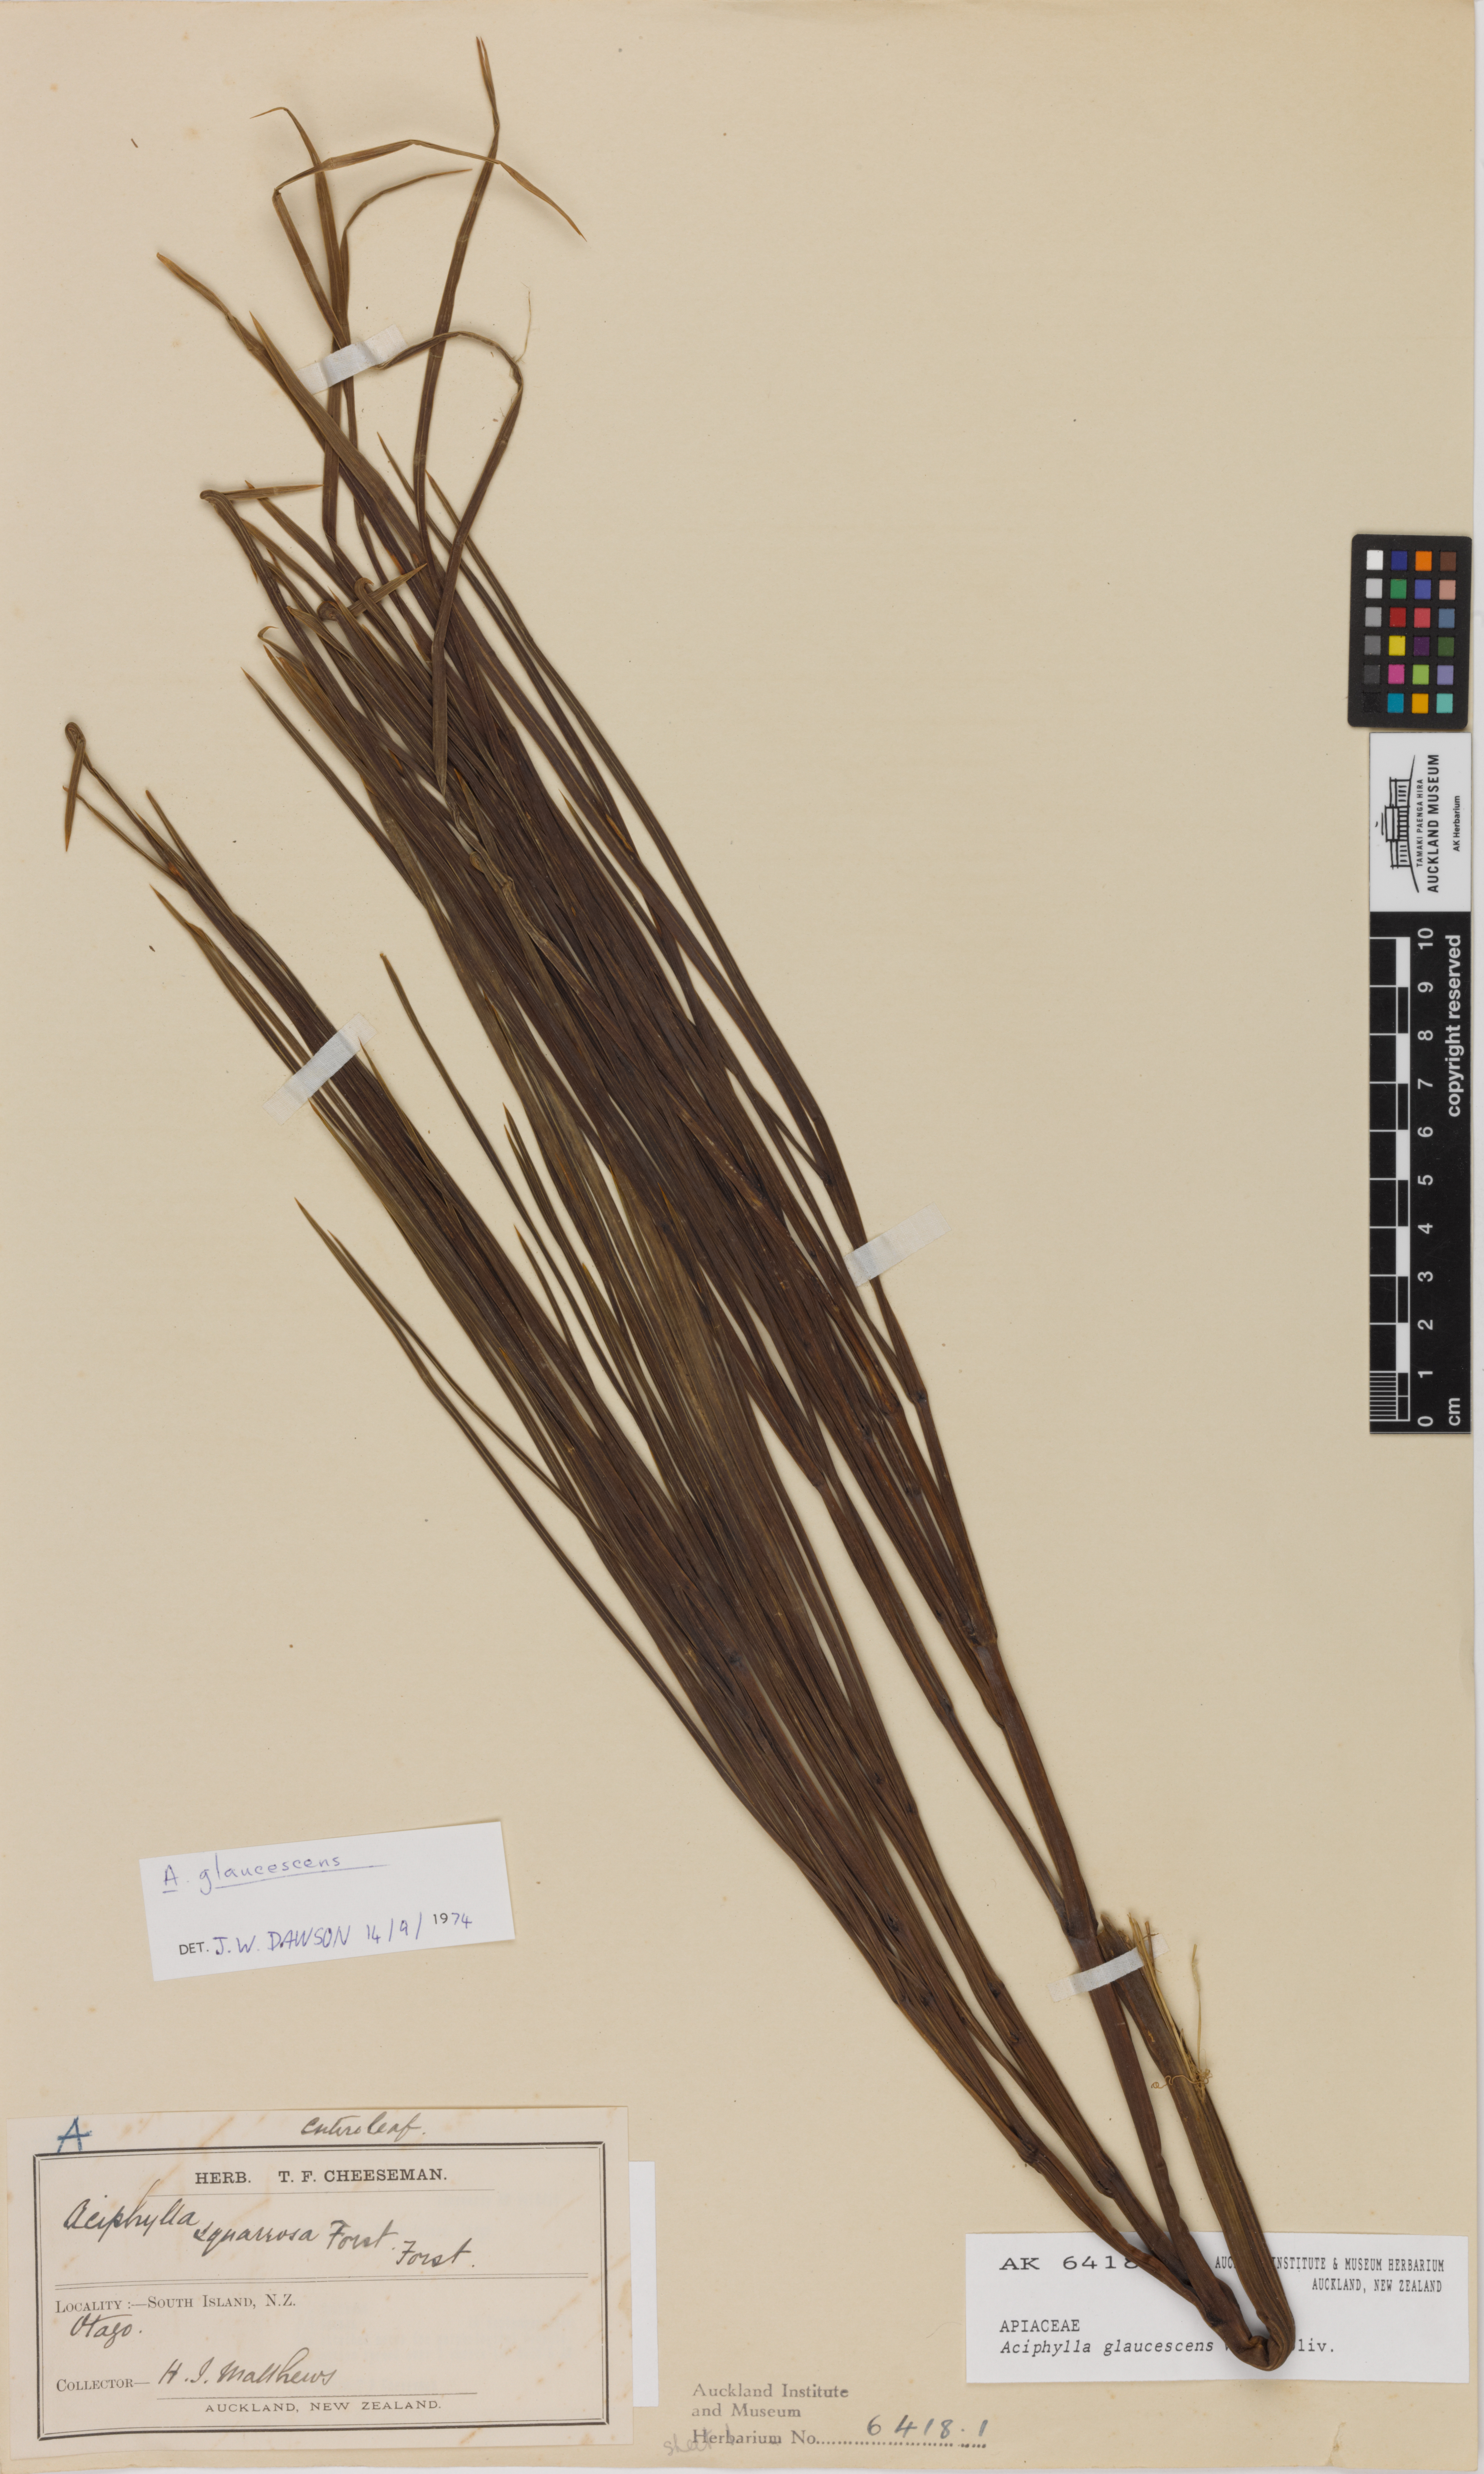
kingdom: Plantae
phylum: Tracheophyta
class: Magnoliopsida
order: Apiales
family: Apiaceae
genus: Aciphylla
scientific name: Aciphylla glaucescens
